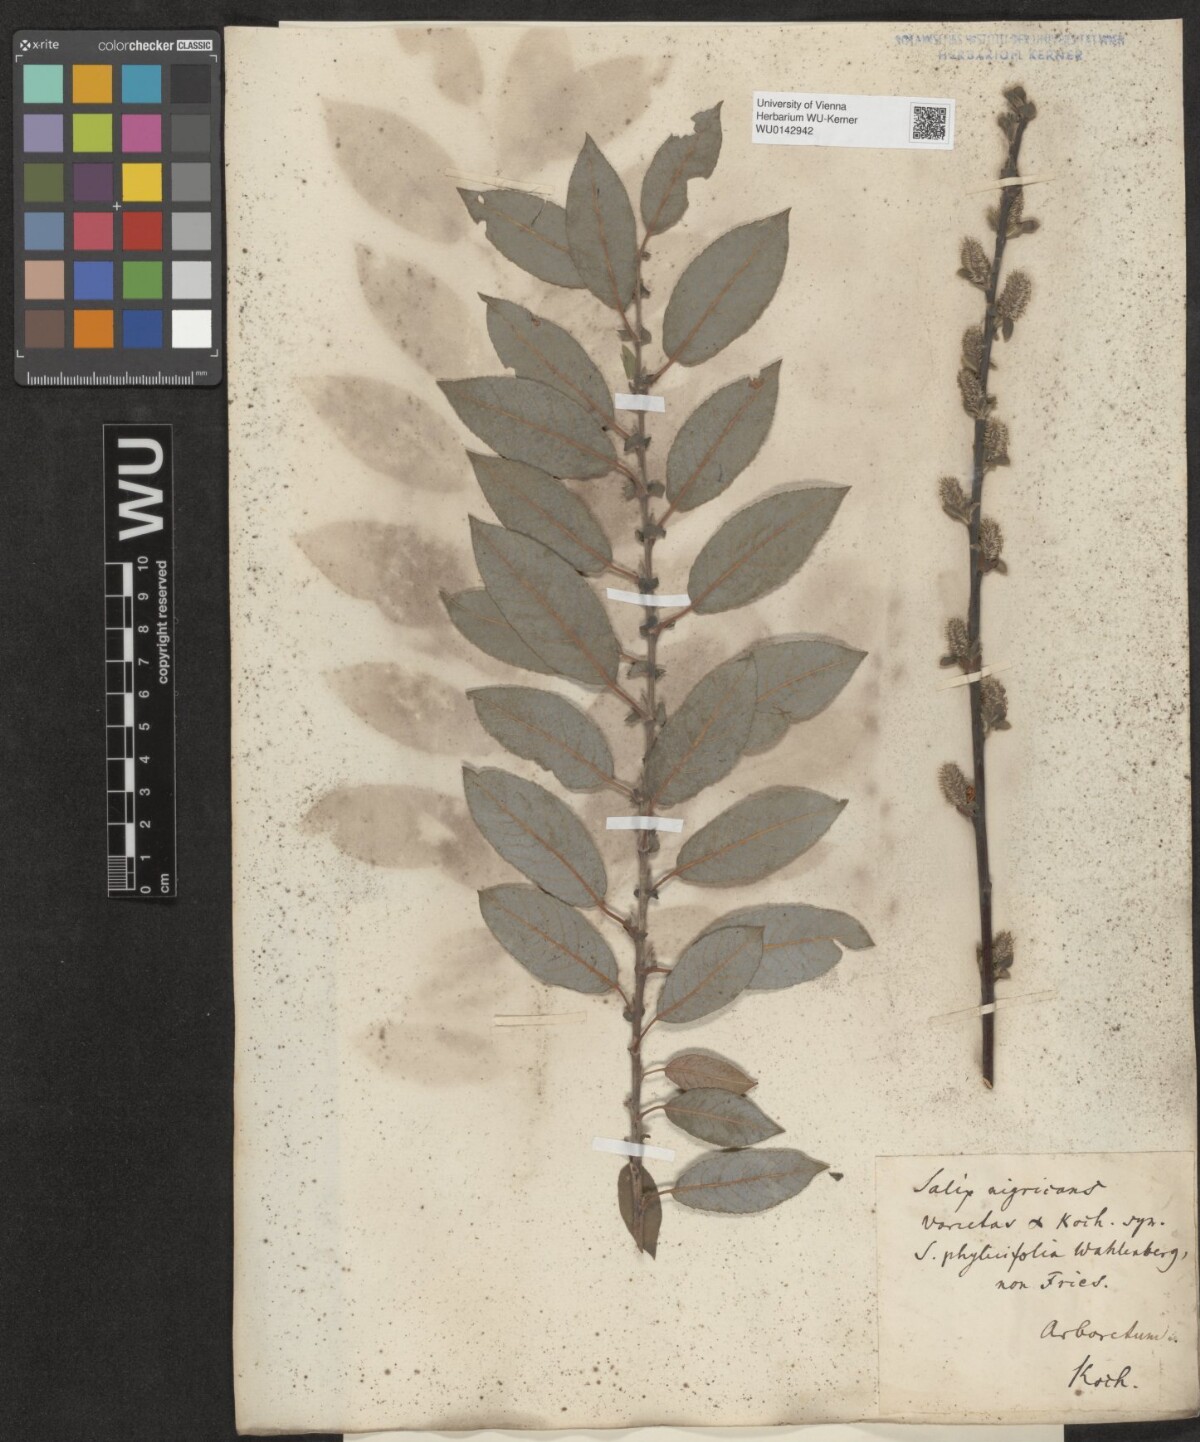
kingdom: Plantae
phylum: Tracheophyta
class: Magnoliopsida
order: Malpighiales
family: Salicaceae
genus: Salix
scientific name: Salix myrsinifolia
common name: Dark-leaved willow
